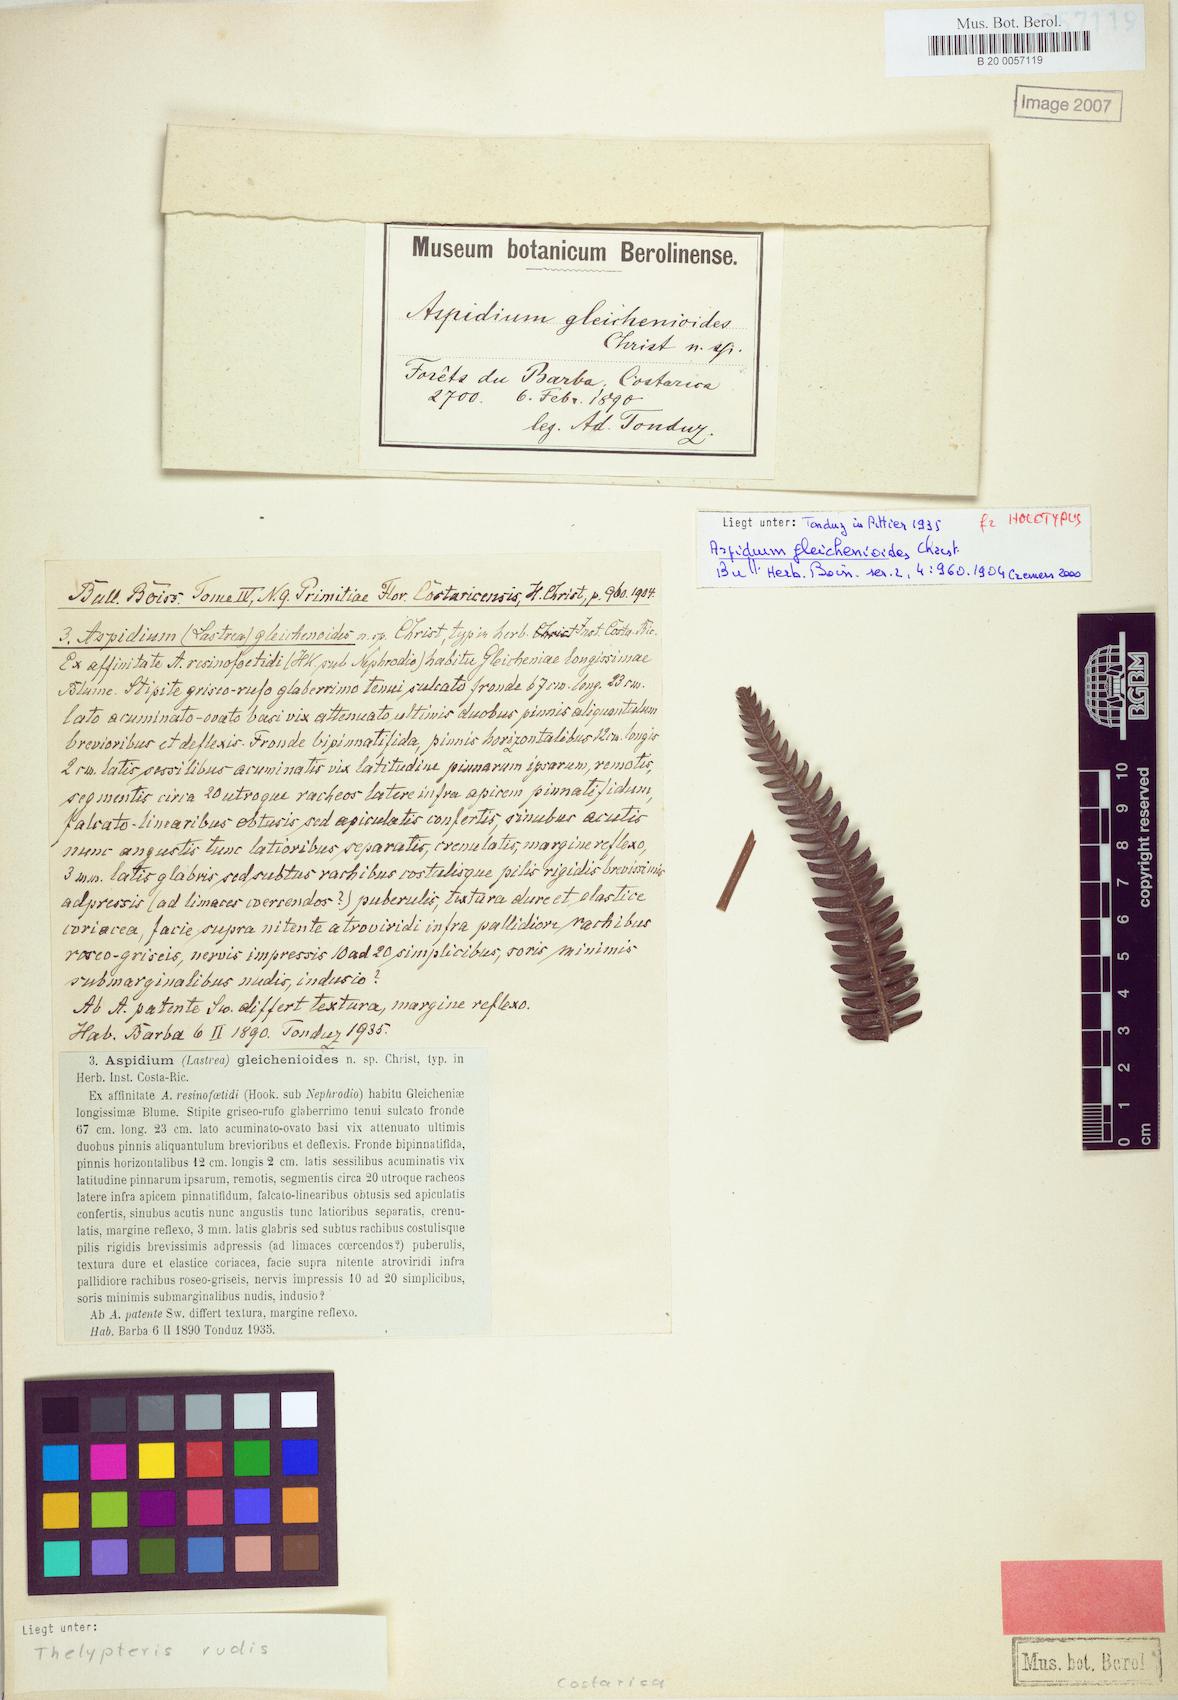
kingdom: Plantae
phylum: Tracheophyta
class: Polypodiopsida
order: Polypodiales
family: Thelypteridaceae
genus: Amauropelta
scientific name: Amauropelta rudis
